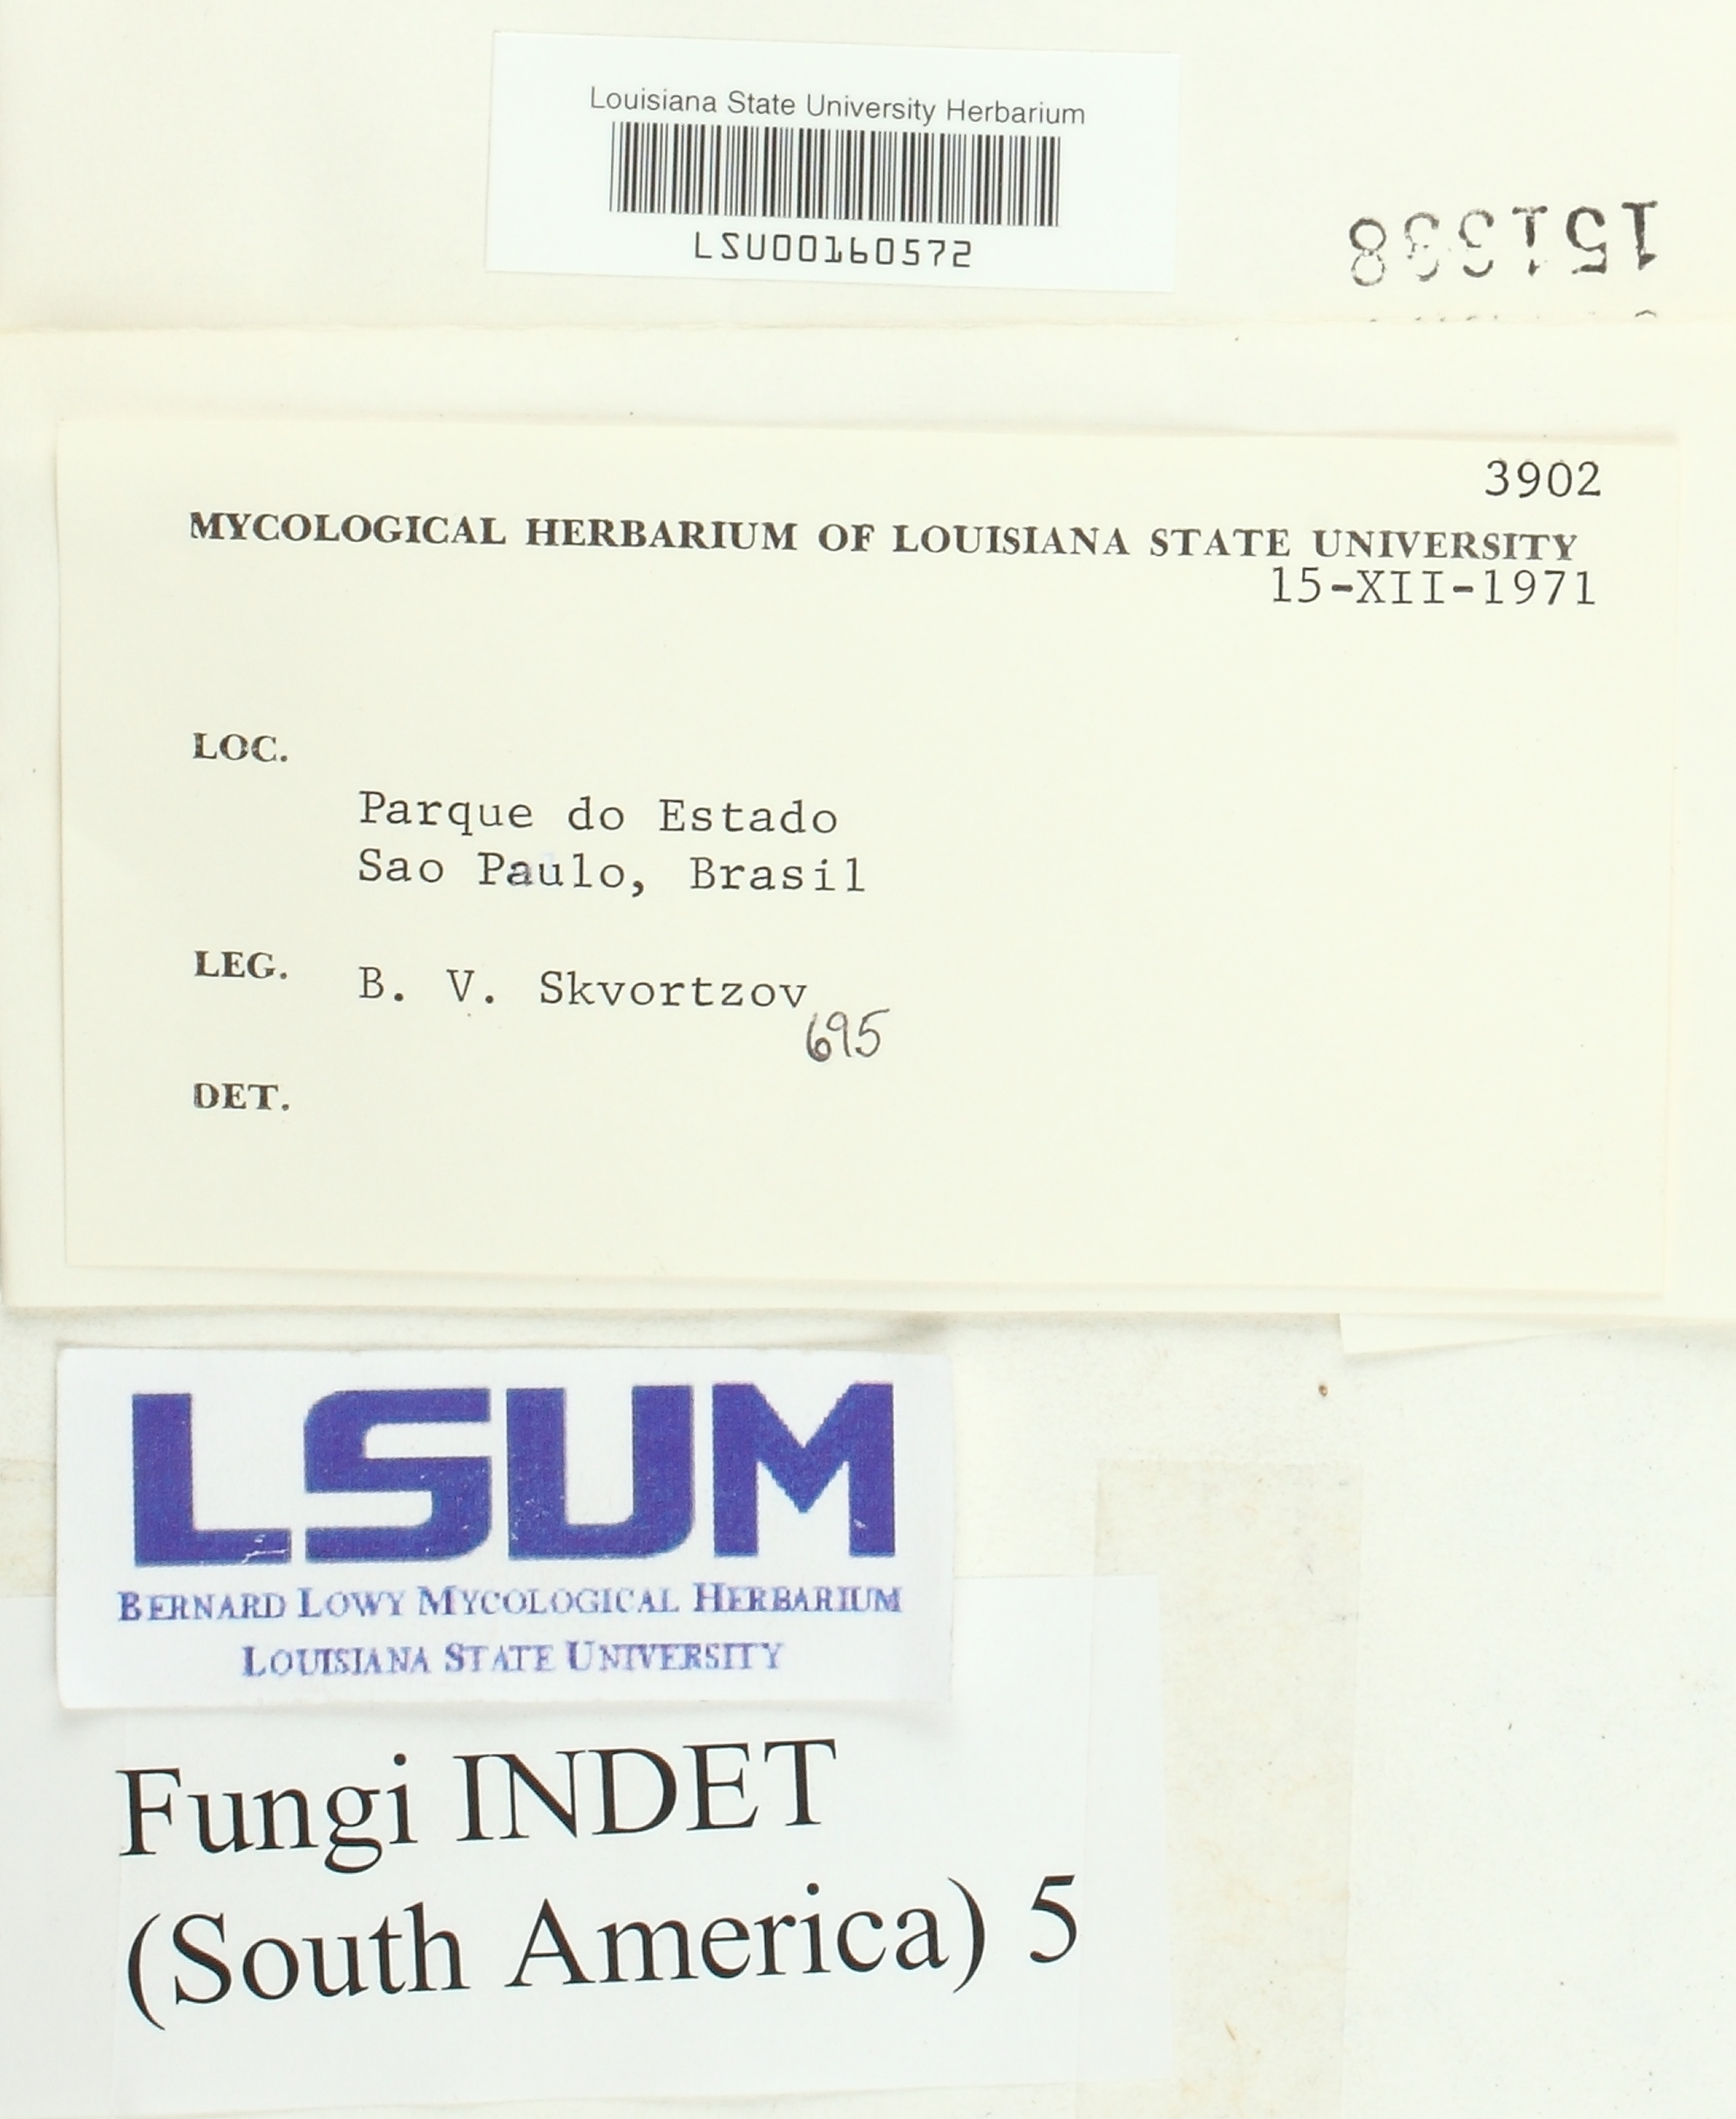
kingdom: Fungi
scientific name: Fungi
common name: Fungi
